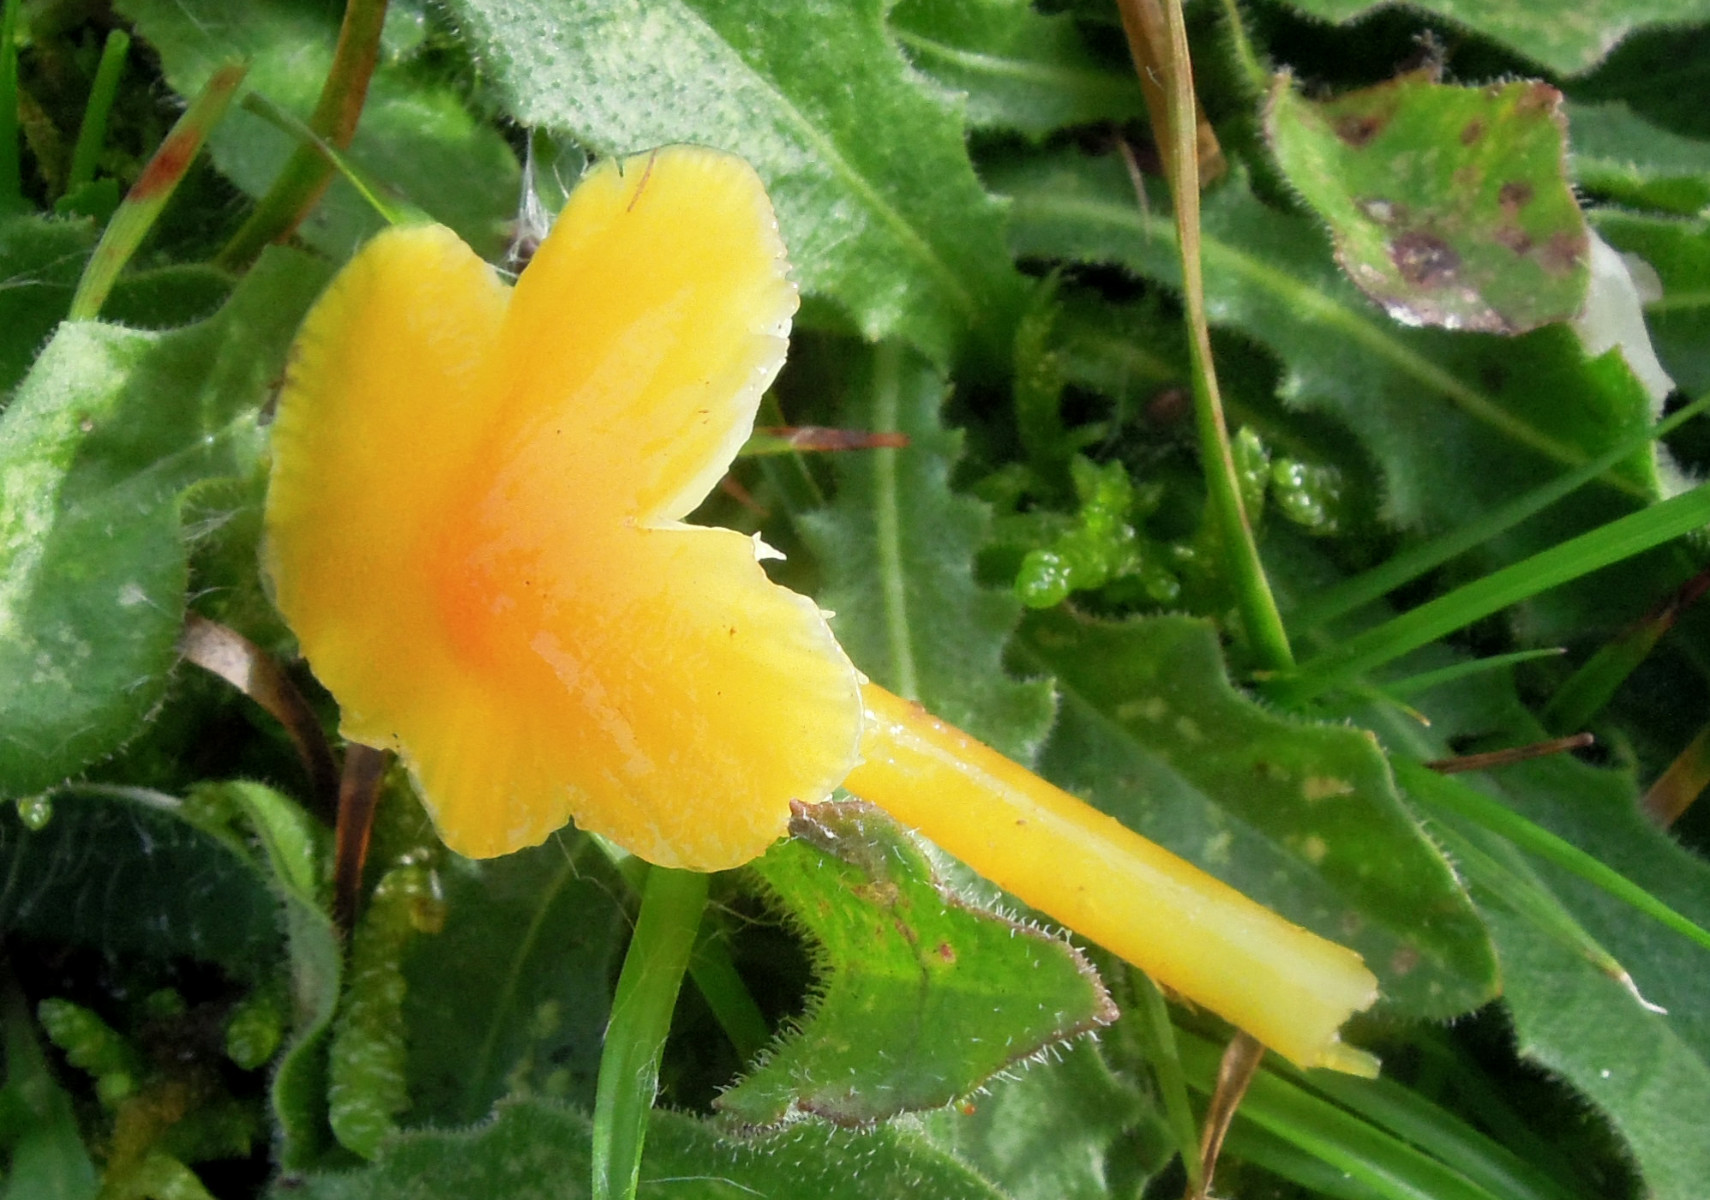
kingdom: Fungi
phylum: Basidiomycota
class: Agaricomycetes
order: Agaricales
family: Hygrophoraceae
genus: Hygrocybe
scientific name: Hygrocybe glutinipes
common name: slimstokket vokshat
